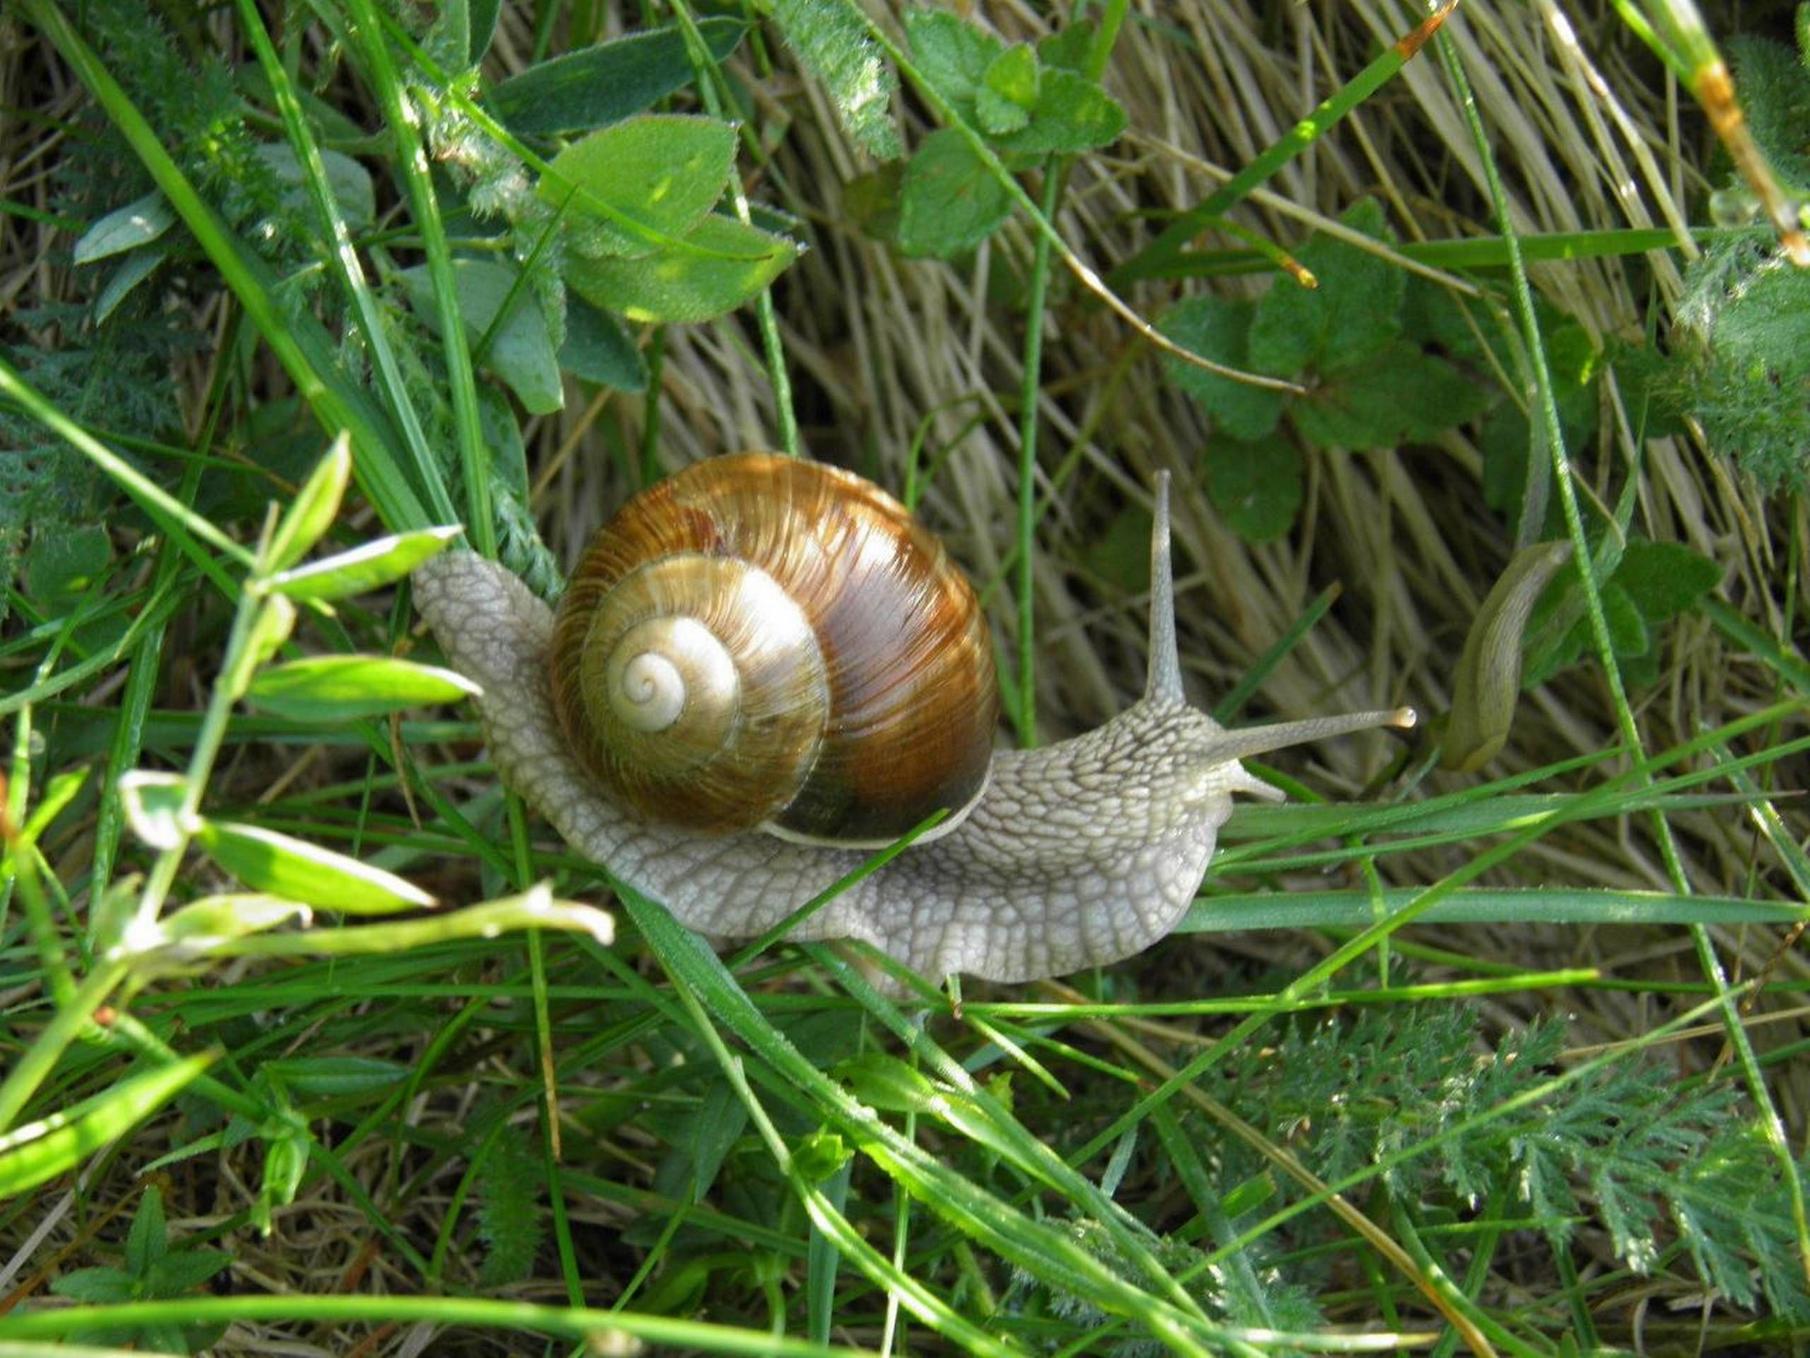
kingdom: Animalia
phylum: Mollusca
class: Gastropoda
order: Stylommatophora
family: Helicidae
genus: Helix
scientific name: Helix pomatia
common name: Vinbjergsnegl
